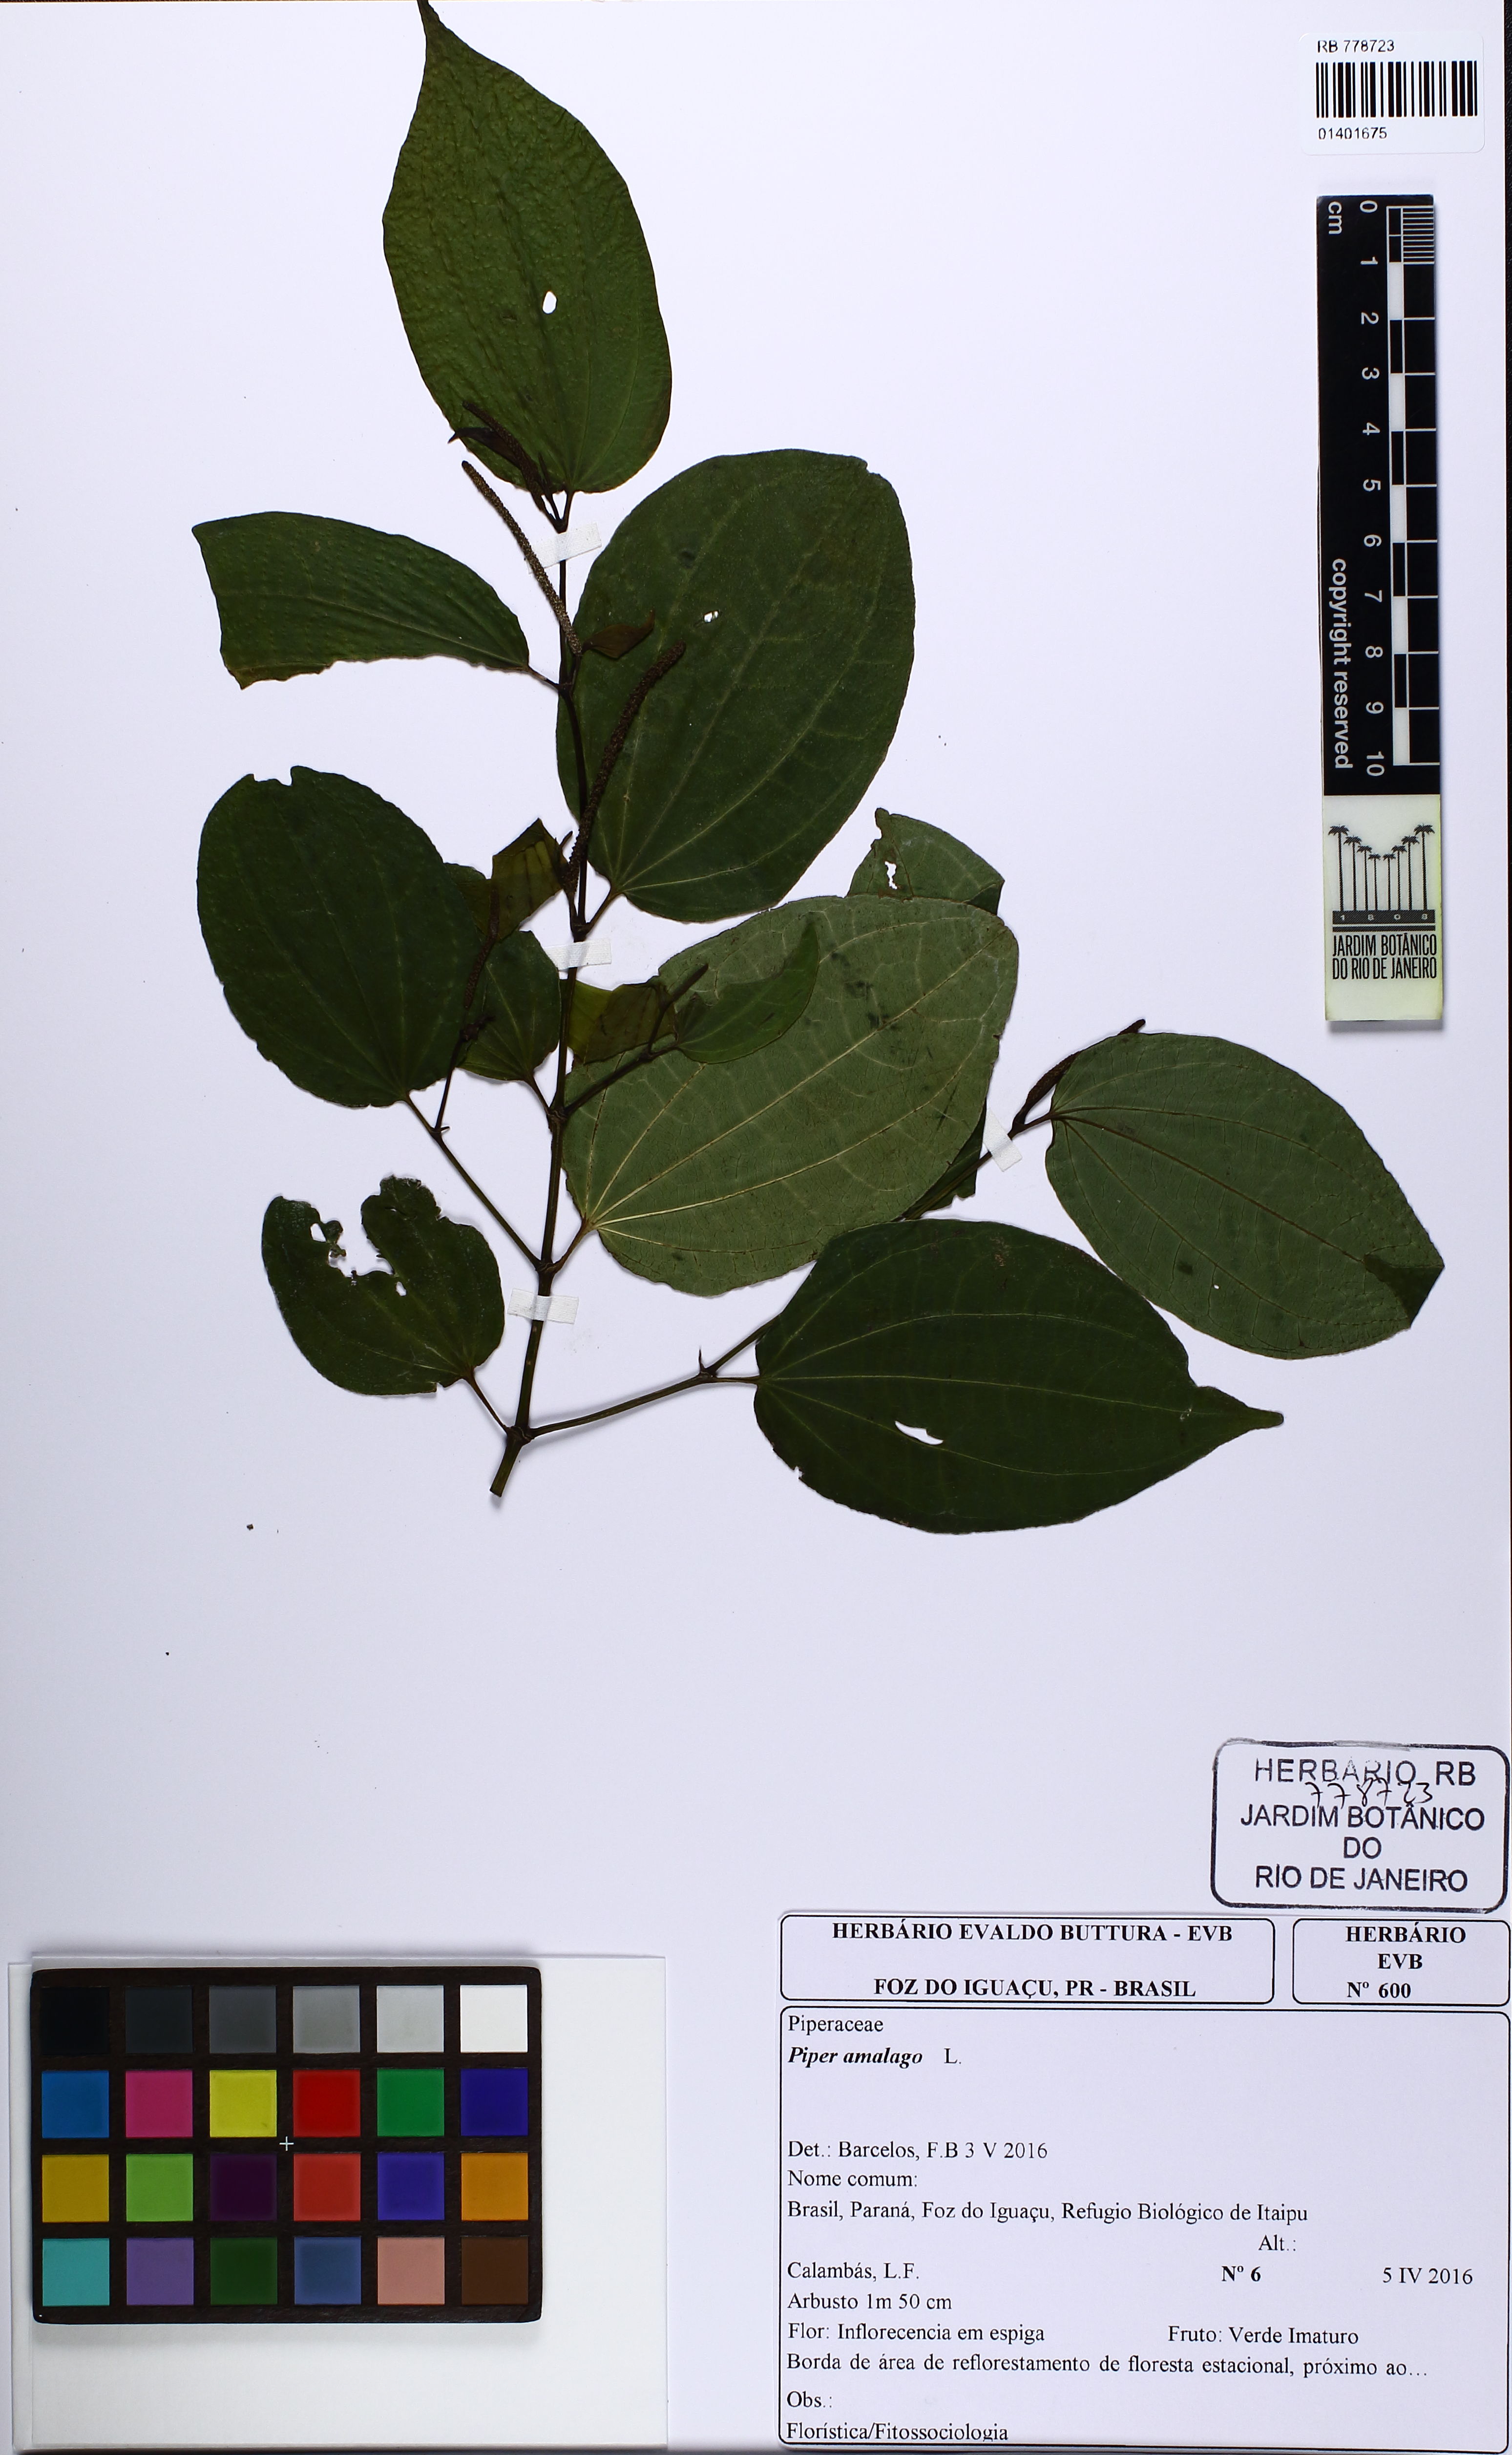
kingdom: Plantae
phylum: Tracheophyta
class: Magnoliopsida
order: Piperales
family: Piperaceae
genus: Piper
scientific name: Piper amalago
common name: Pepper-elder
